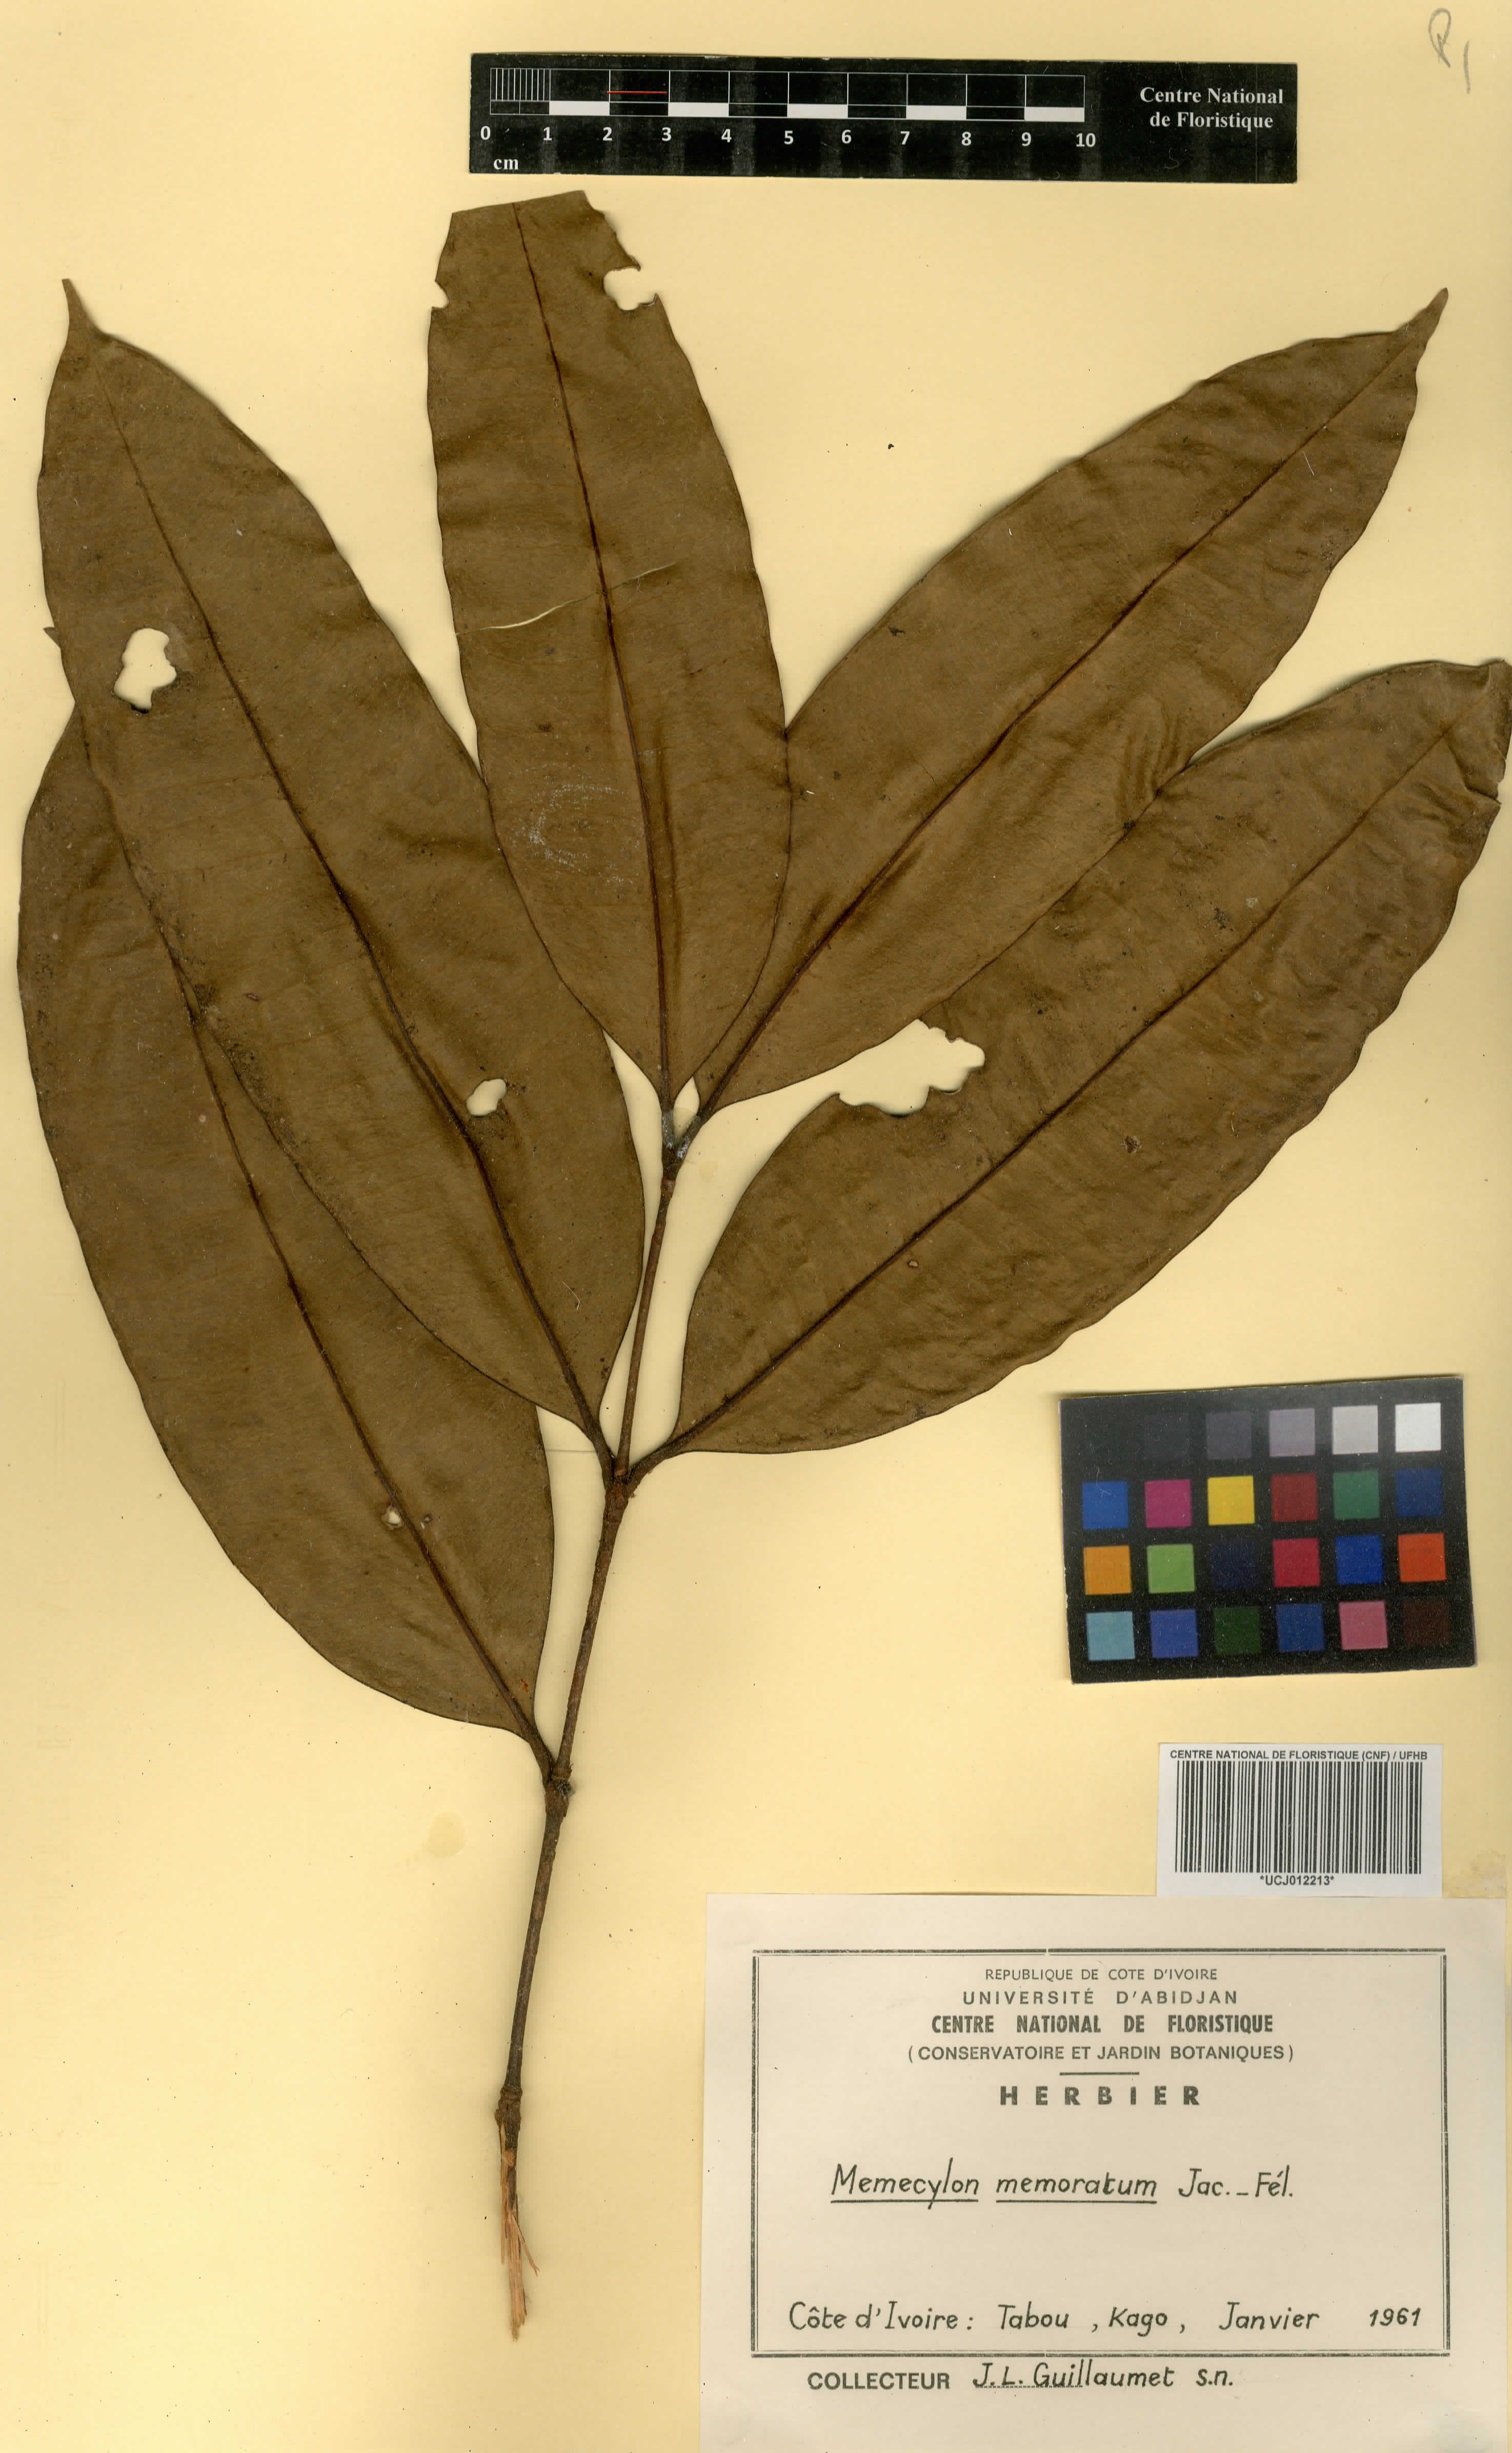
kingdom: Plantae
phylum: Tracheophyta
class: Magnoliopsida
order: Myrtales
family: Melastomataceae
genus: Memecylon
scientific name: Memecylon memoratum
